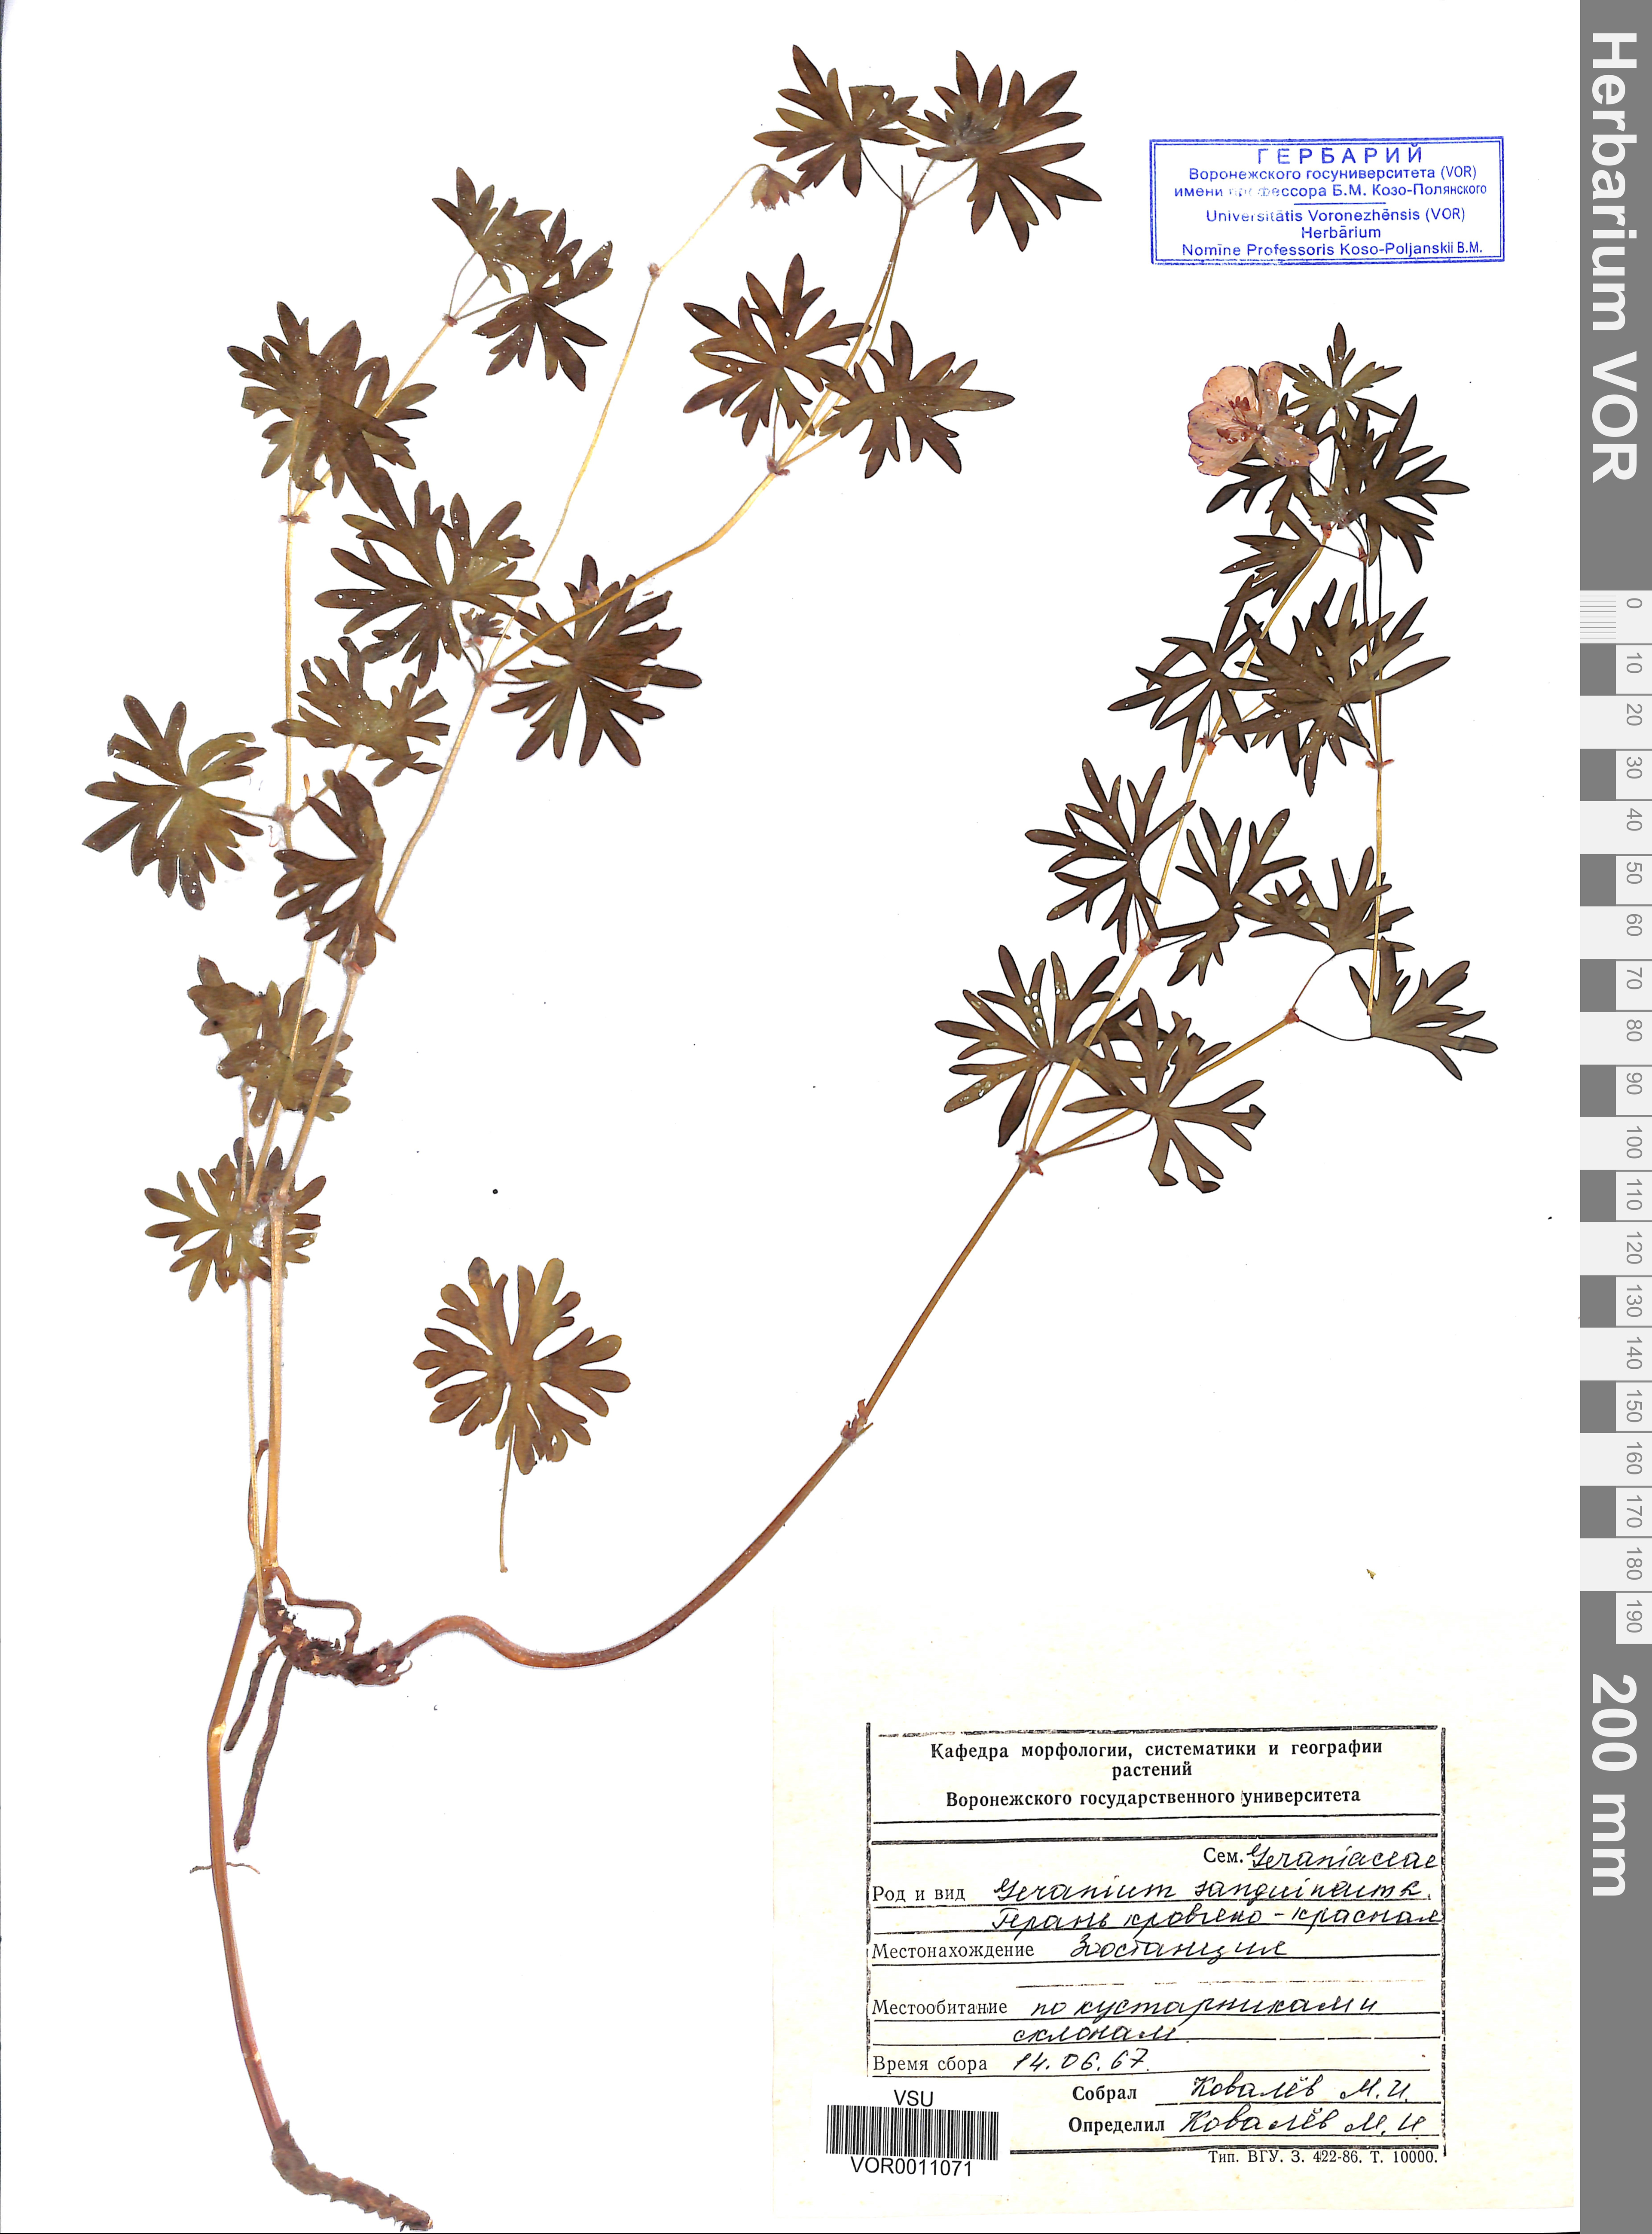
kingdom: Plantae
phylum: Tracheophyta
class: Magnoliopsida
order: Geraniales
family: Geraniaceae
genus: Geranium
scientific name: Geranium sanguineum
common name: Bloody crane's-bill
